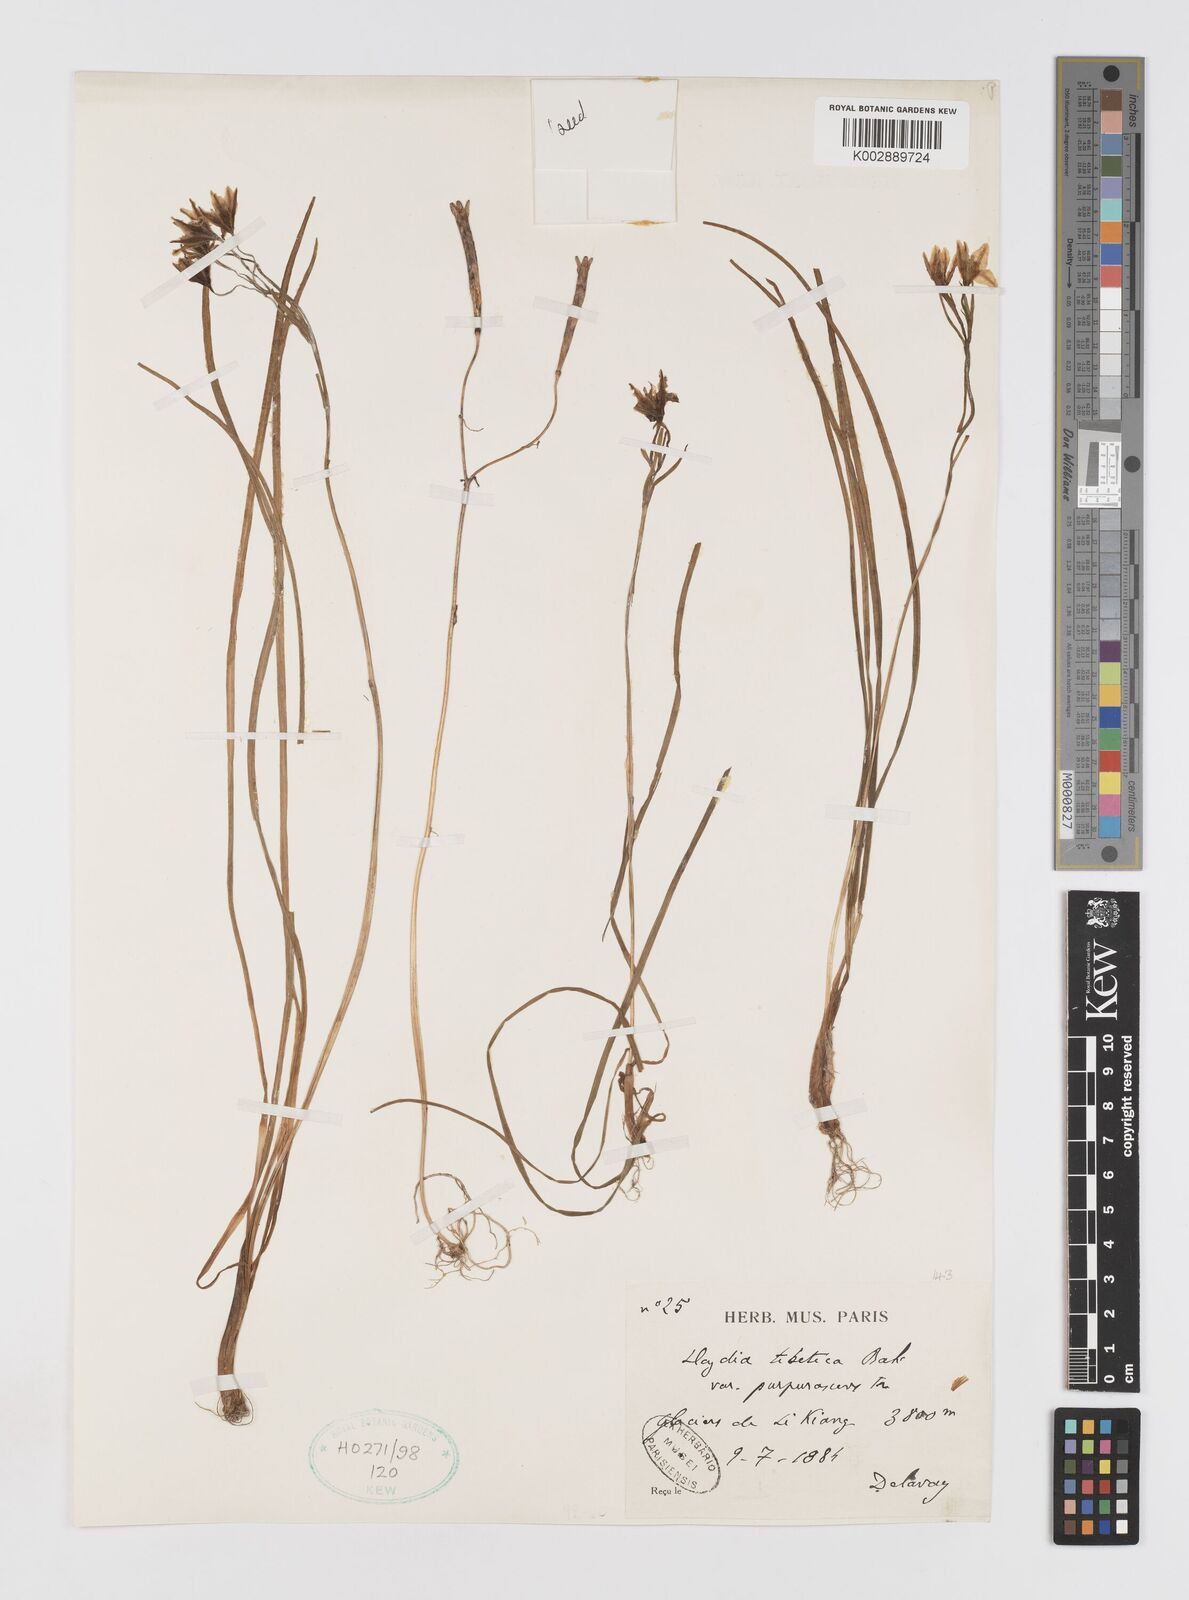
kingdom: Plantae
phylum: Tracheophyta
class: Liliopsida
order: Liliales
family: Liliaceae
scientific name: Liliaceae
